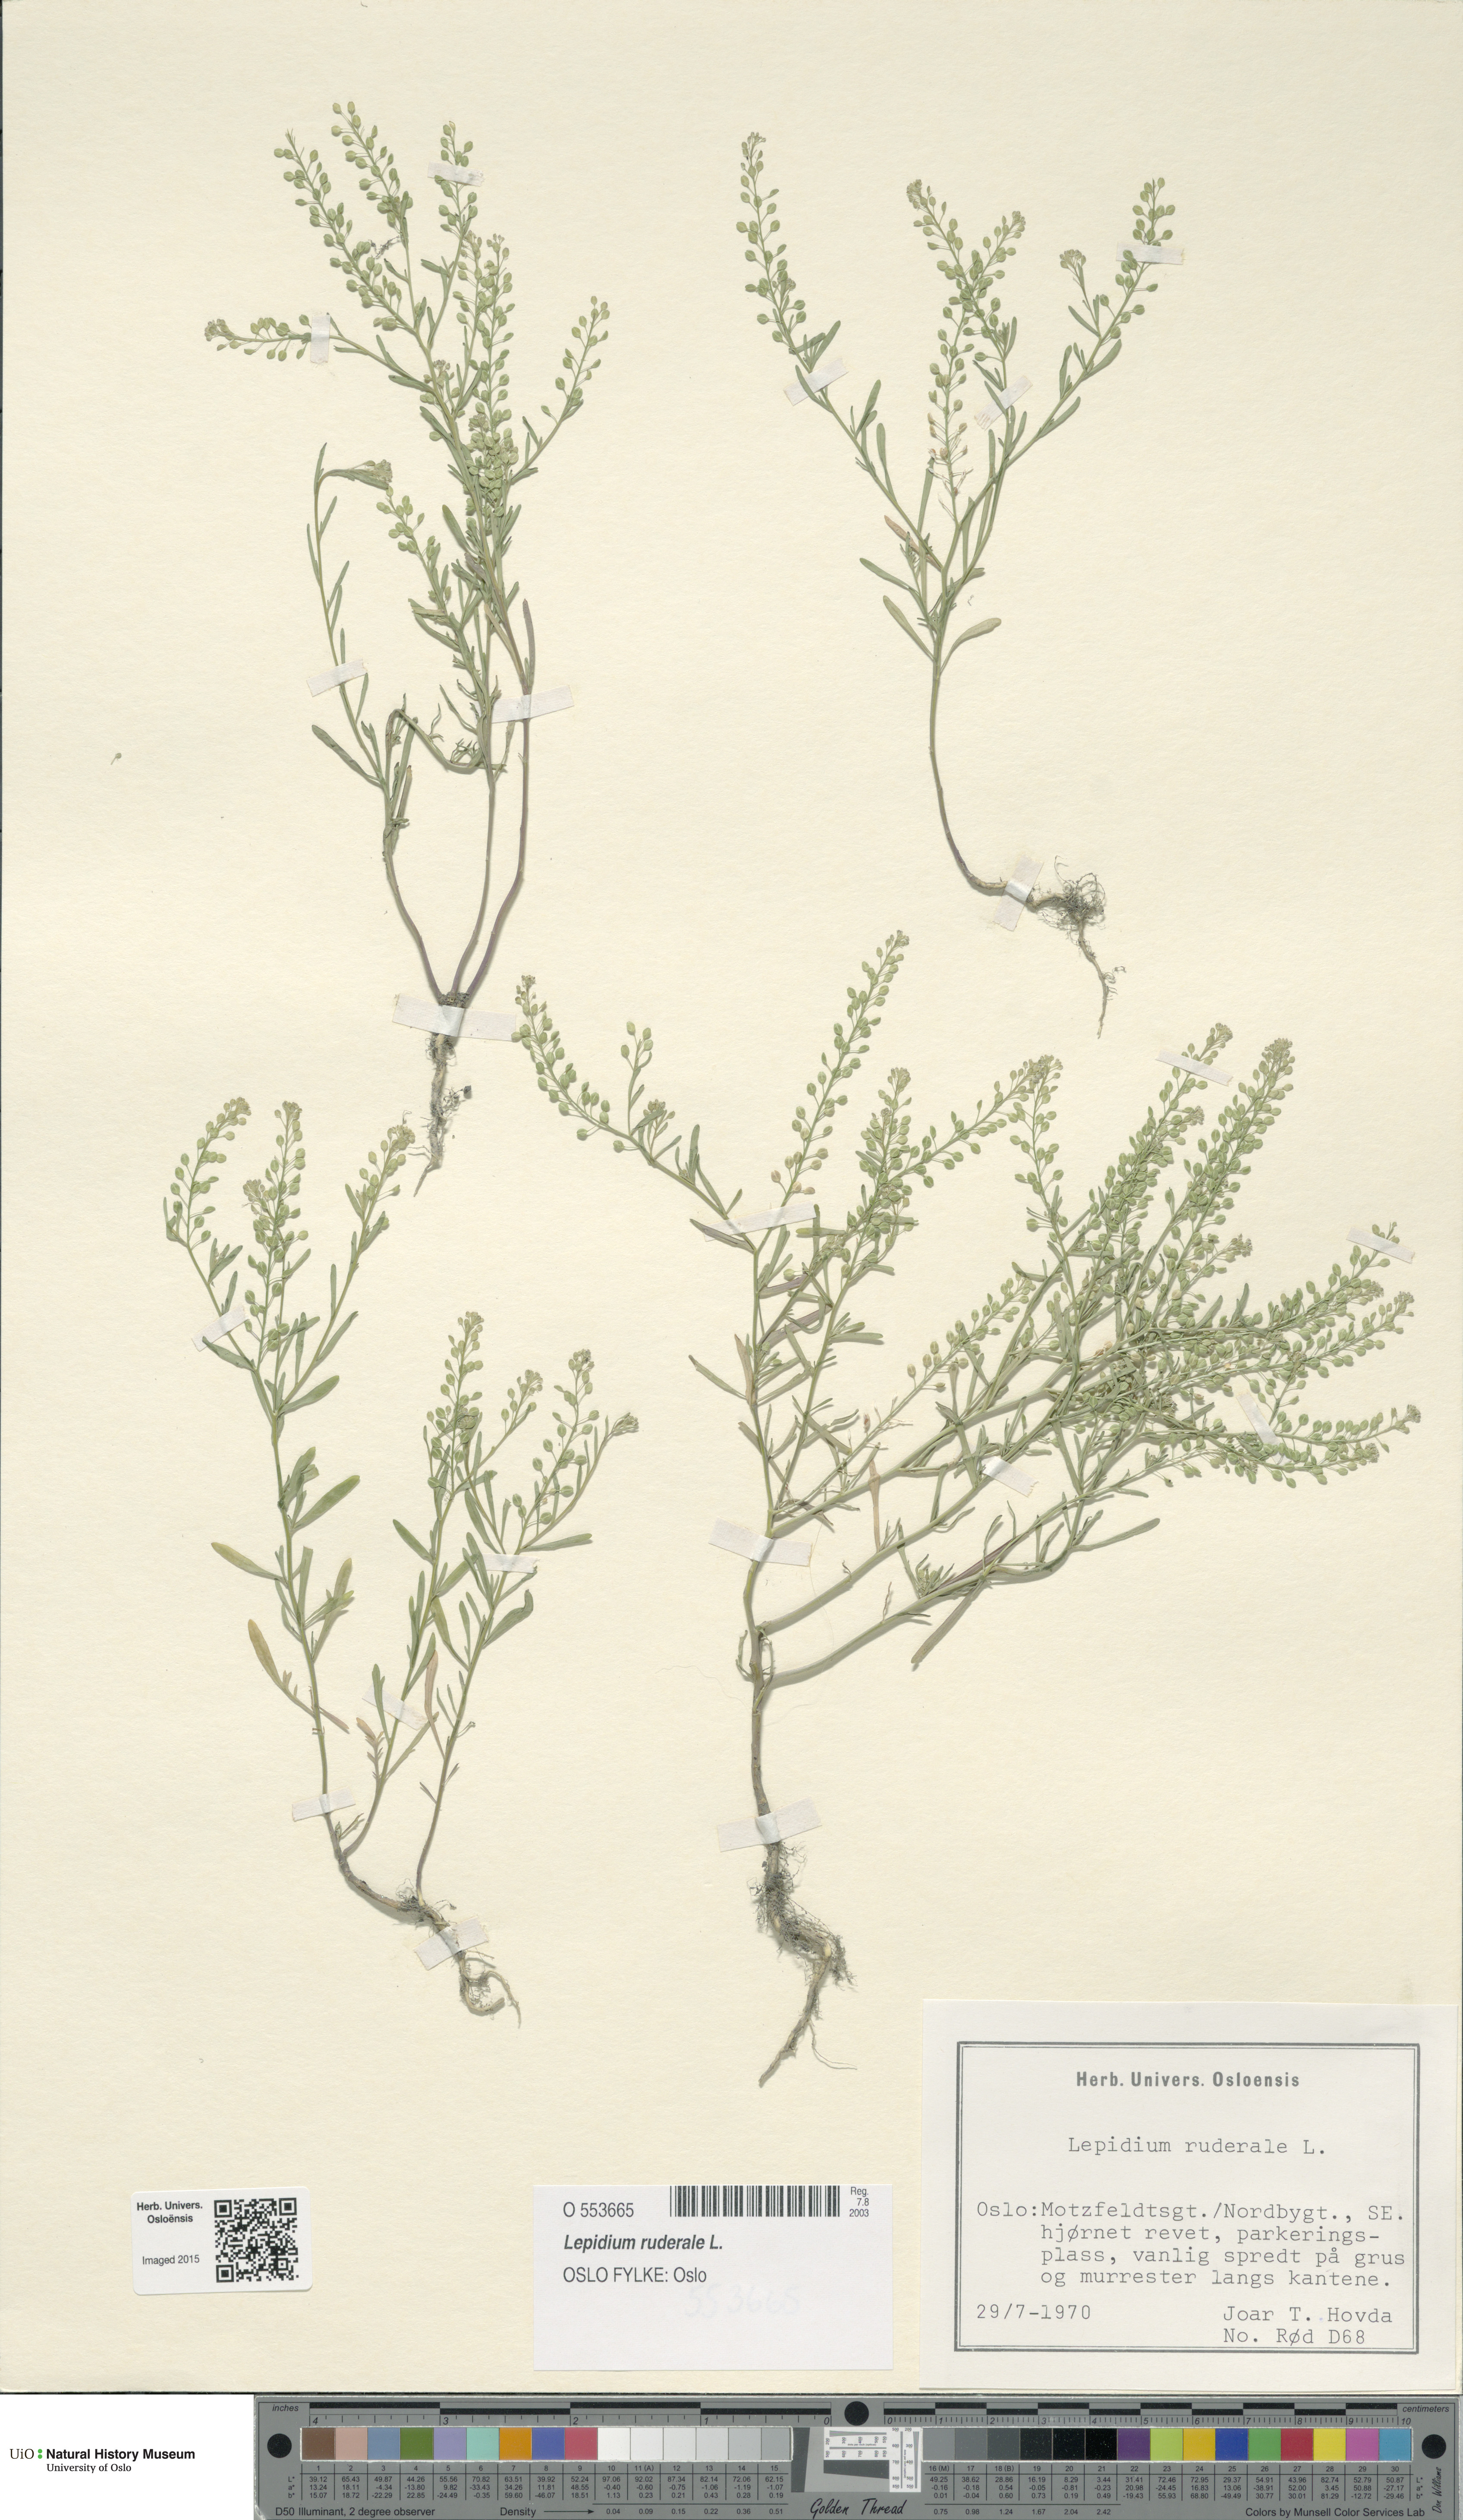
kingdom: Plantae
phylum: Tracheophyta
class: Magnoliopsida
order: Brassicales
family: Brassicaceae
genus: Lepidium
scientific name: Lepidium ruderale
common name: Narrow-leaved pepperwort
